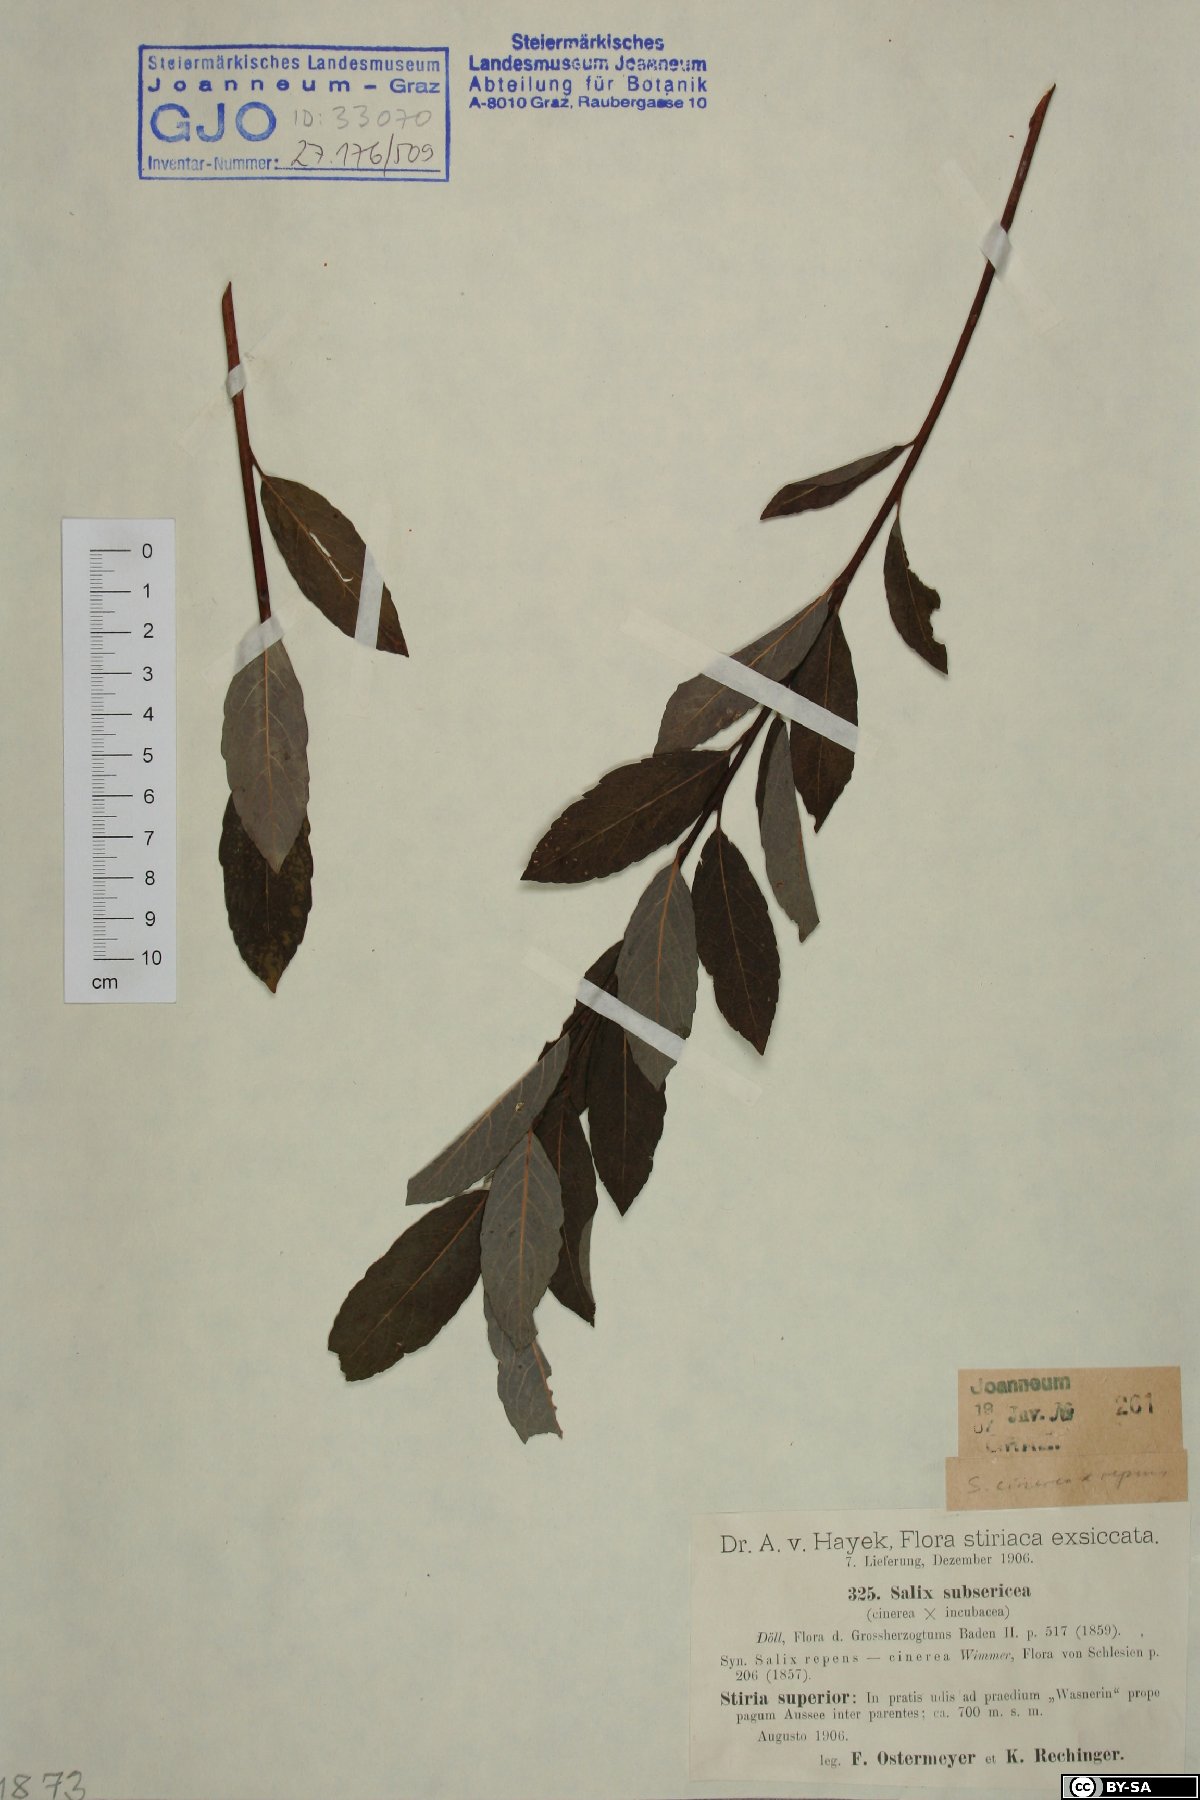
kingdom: Plantae
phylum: Tracheophyta
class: Magnoliopsida
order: Malpighiales
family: Salicaceae
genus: Salix
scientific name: Salix subsericea
